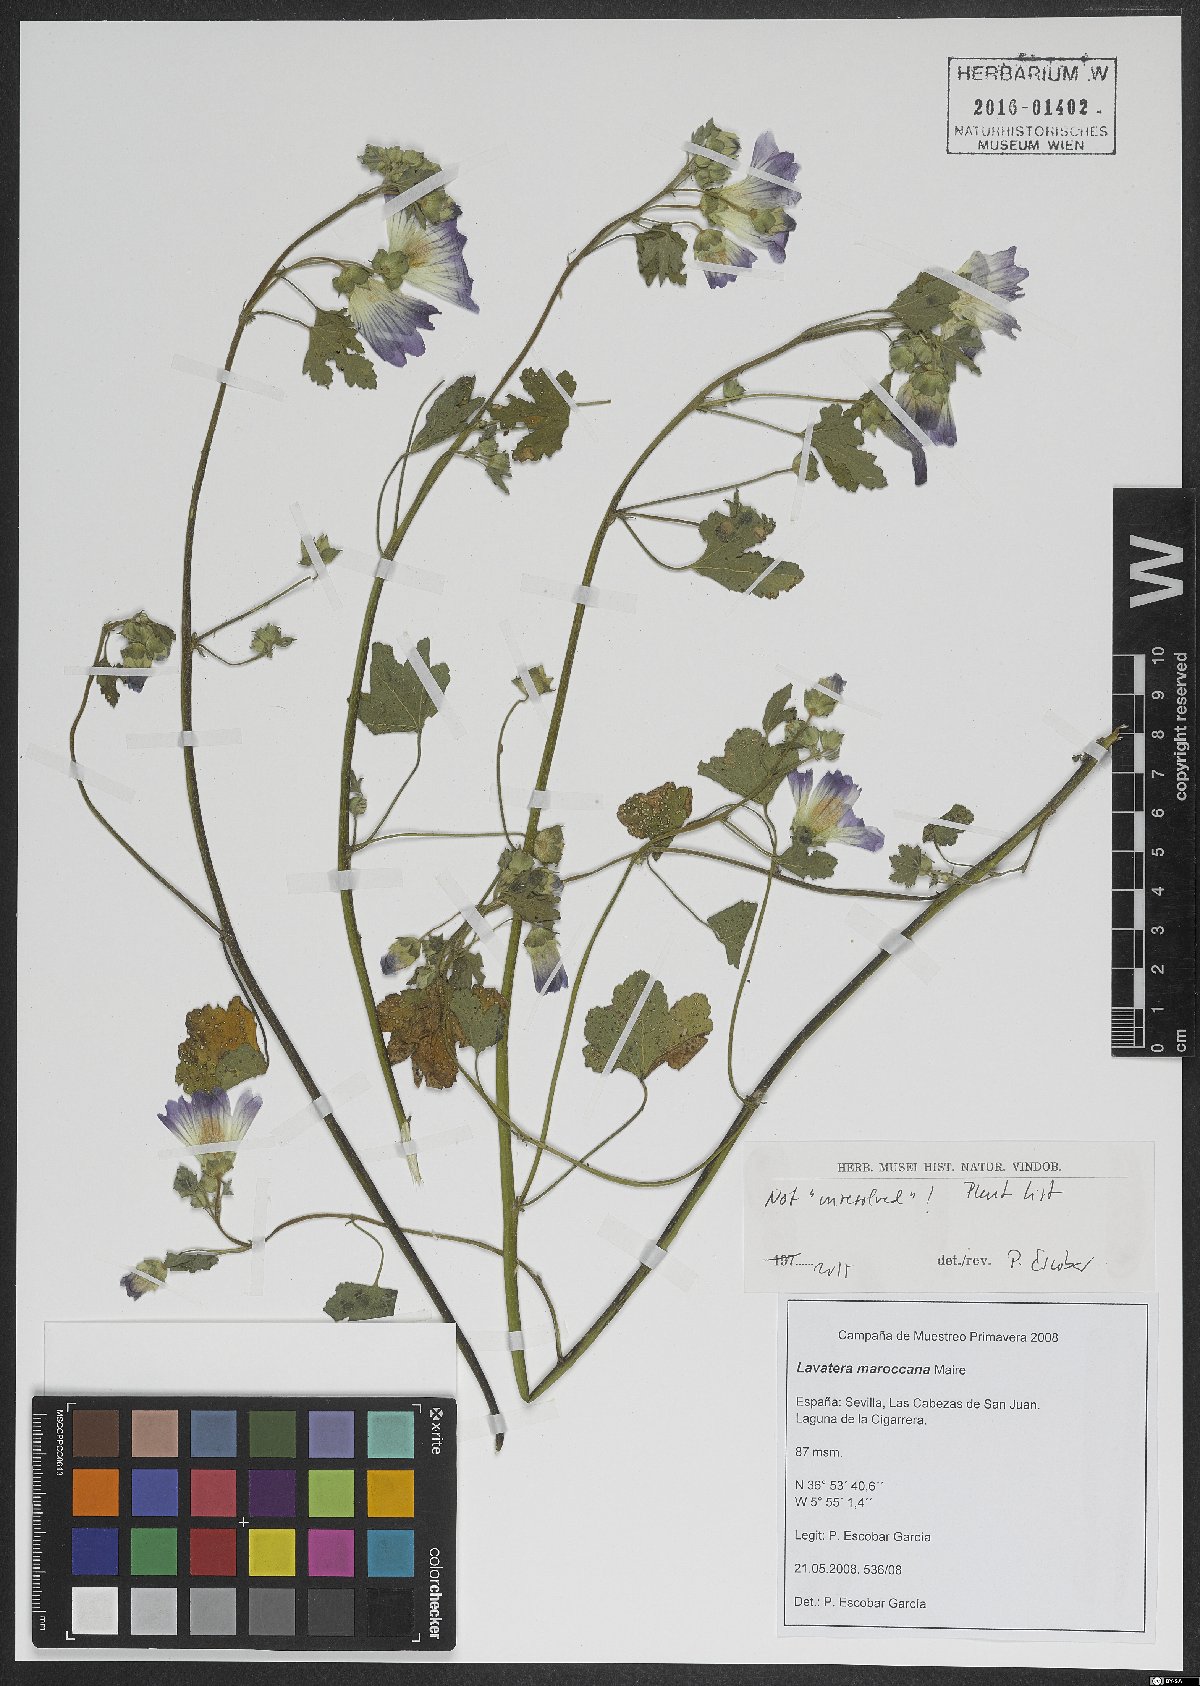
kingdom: Plantae
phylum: Tracheophyta
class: Magnoliopsida
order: Malvales
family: Malvaceae
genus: Malva
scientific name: Malva maroccana
